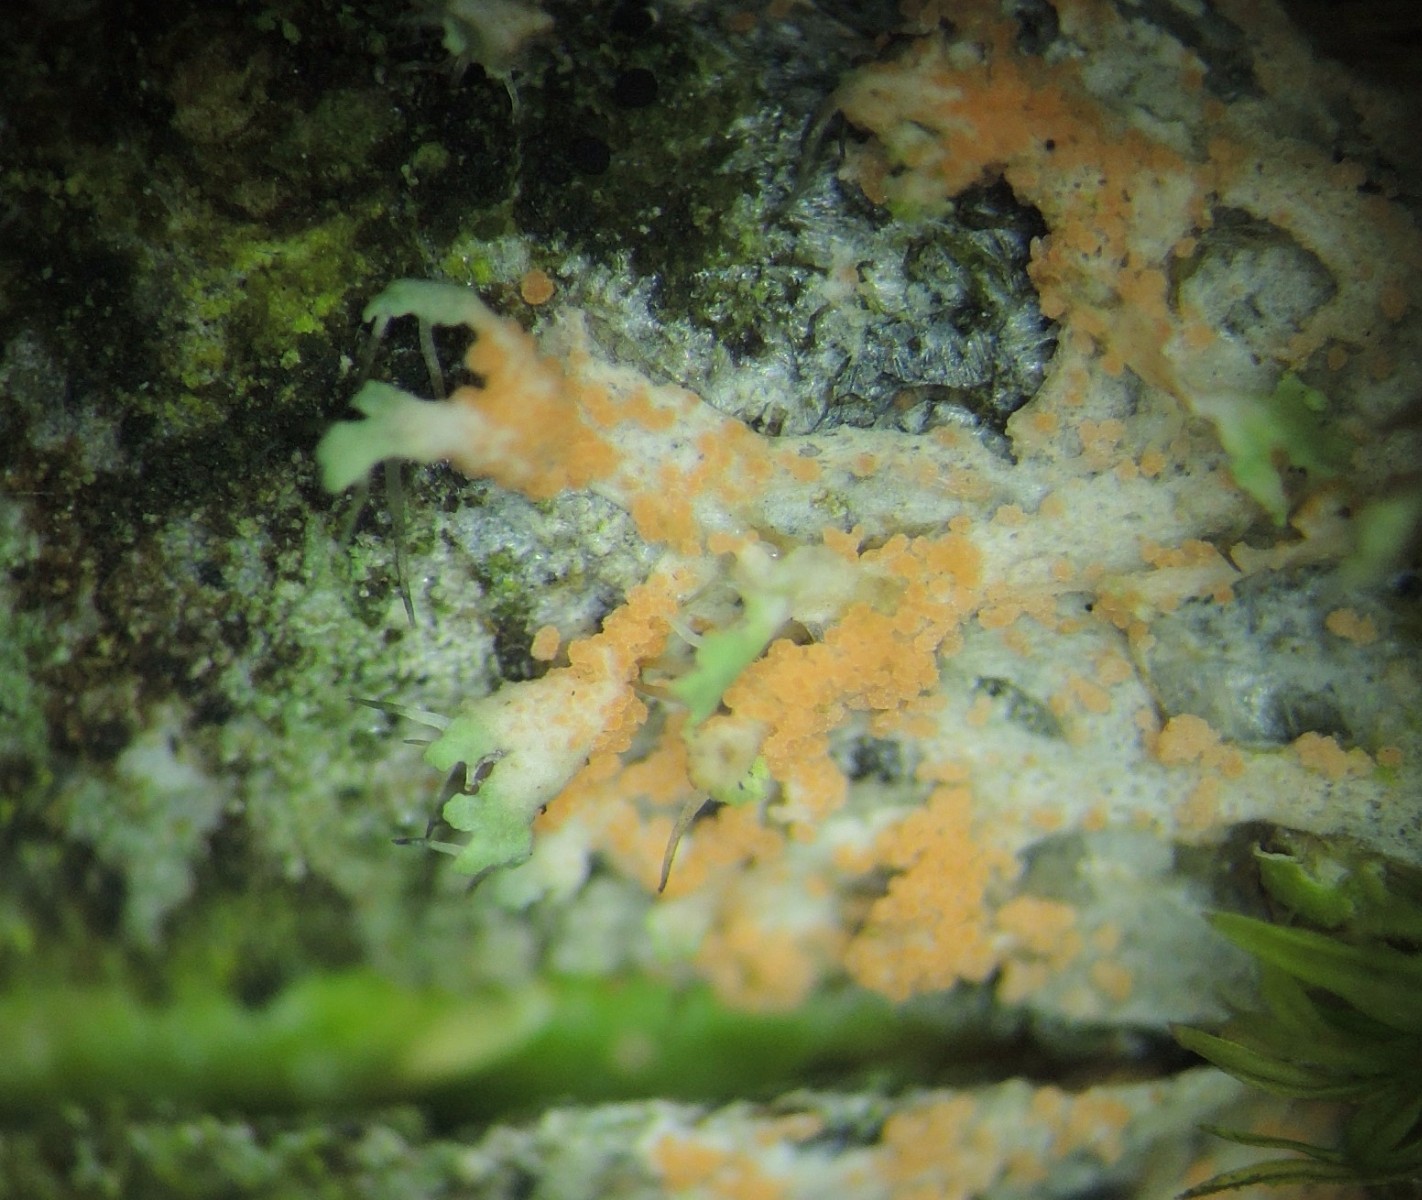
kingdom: Fungi
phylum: Basidiomycota
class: Agaricomycetes
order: Corticiales
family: Corticiaceae
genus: Erythricium
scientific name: Erythricium aurantiacum
